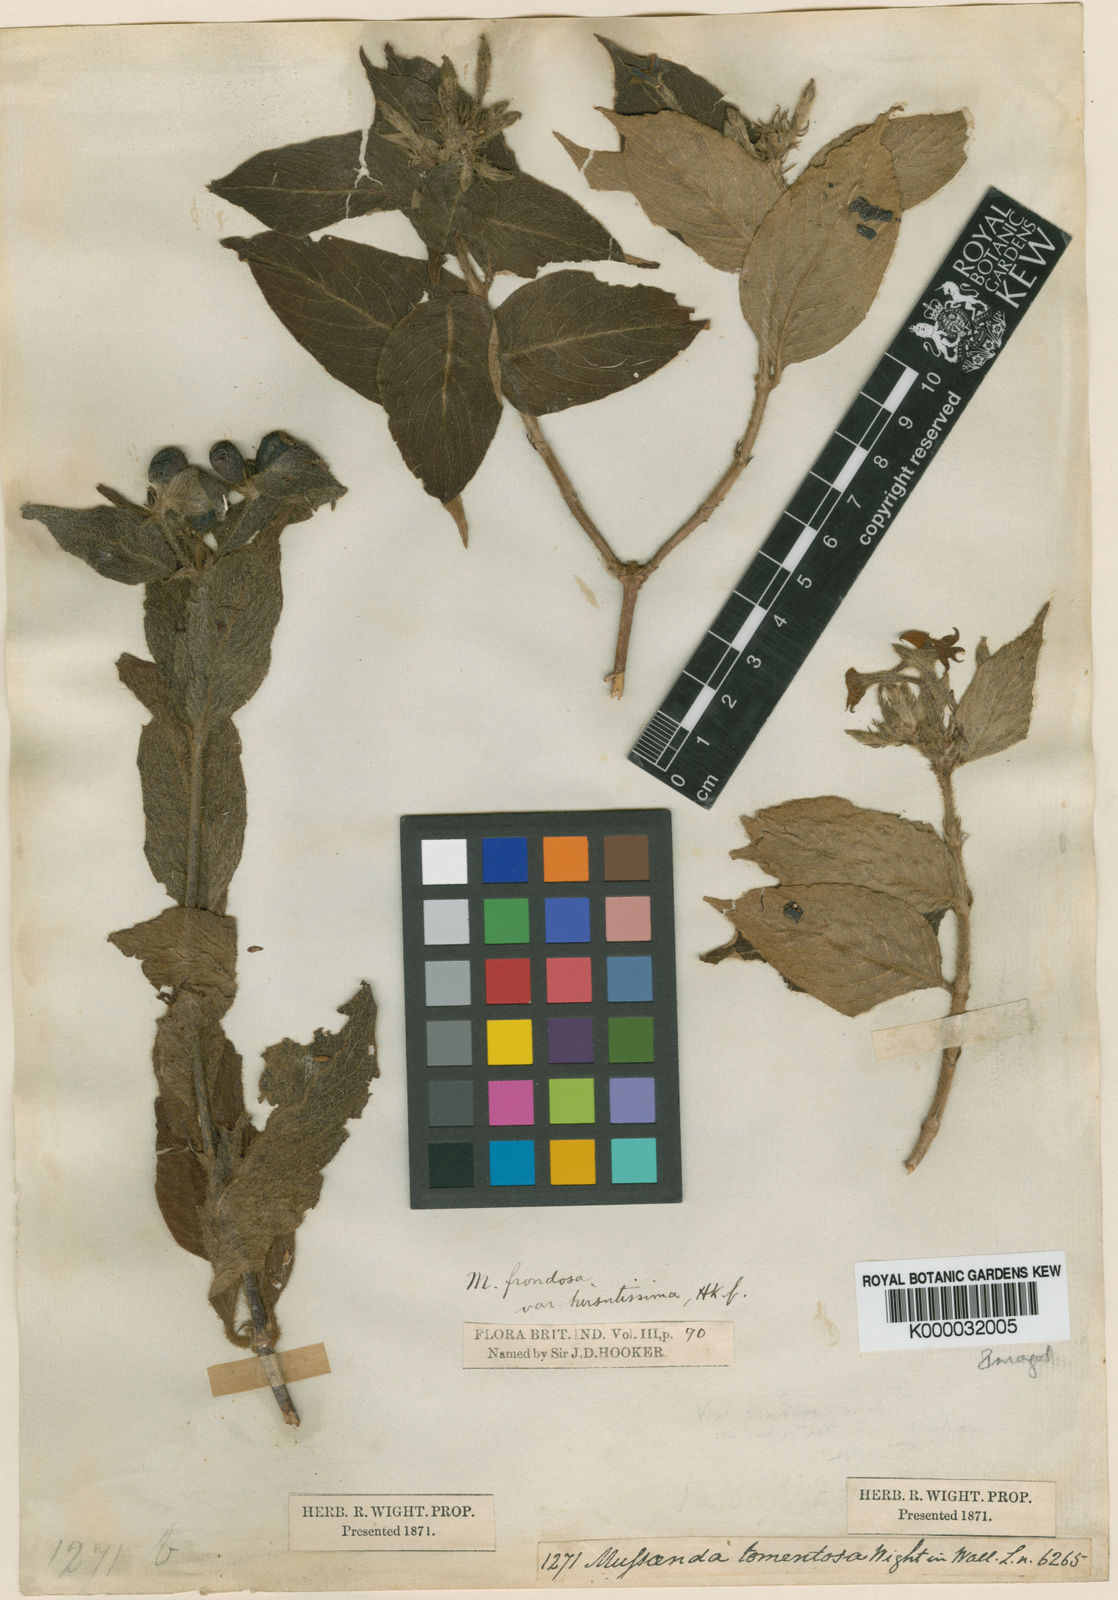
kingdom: Plantae
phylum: Tracheophyta
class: Magnoliopsida
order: Gentianales
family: Rubiaceae
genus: Mussaenda
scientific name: Mussaenda hirsutissima
